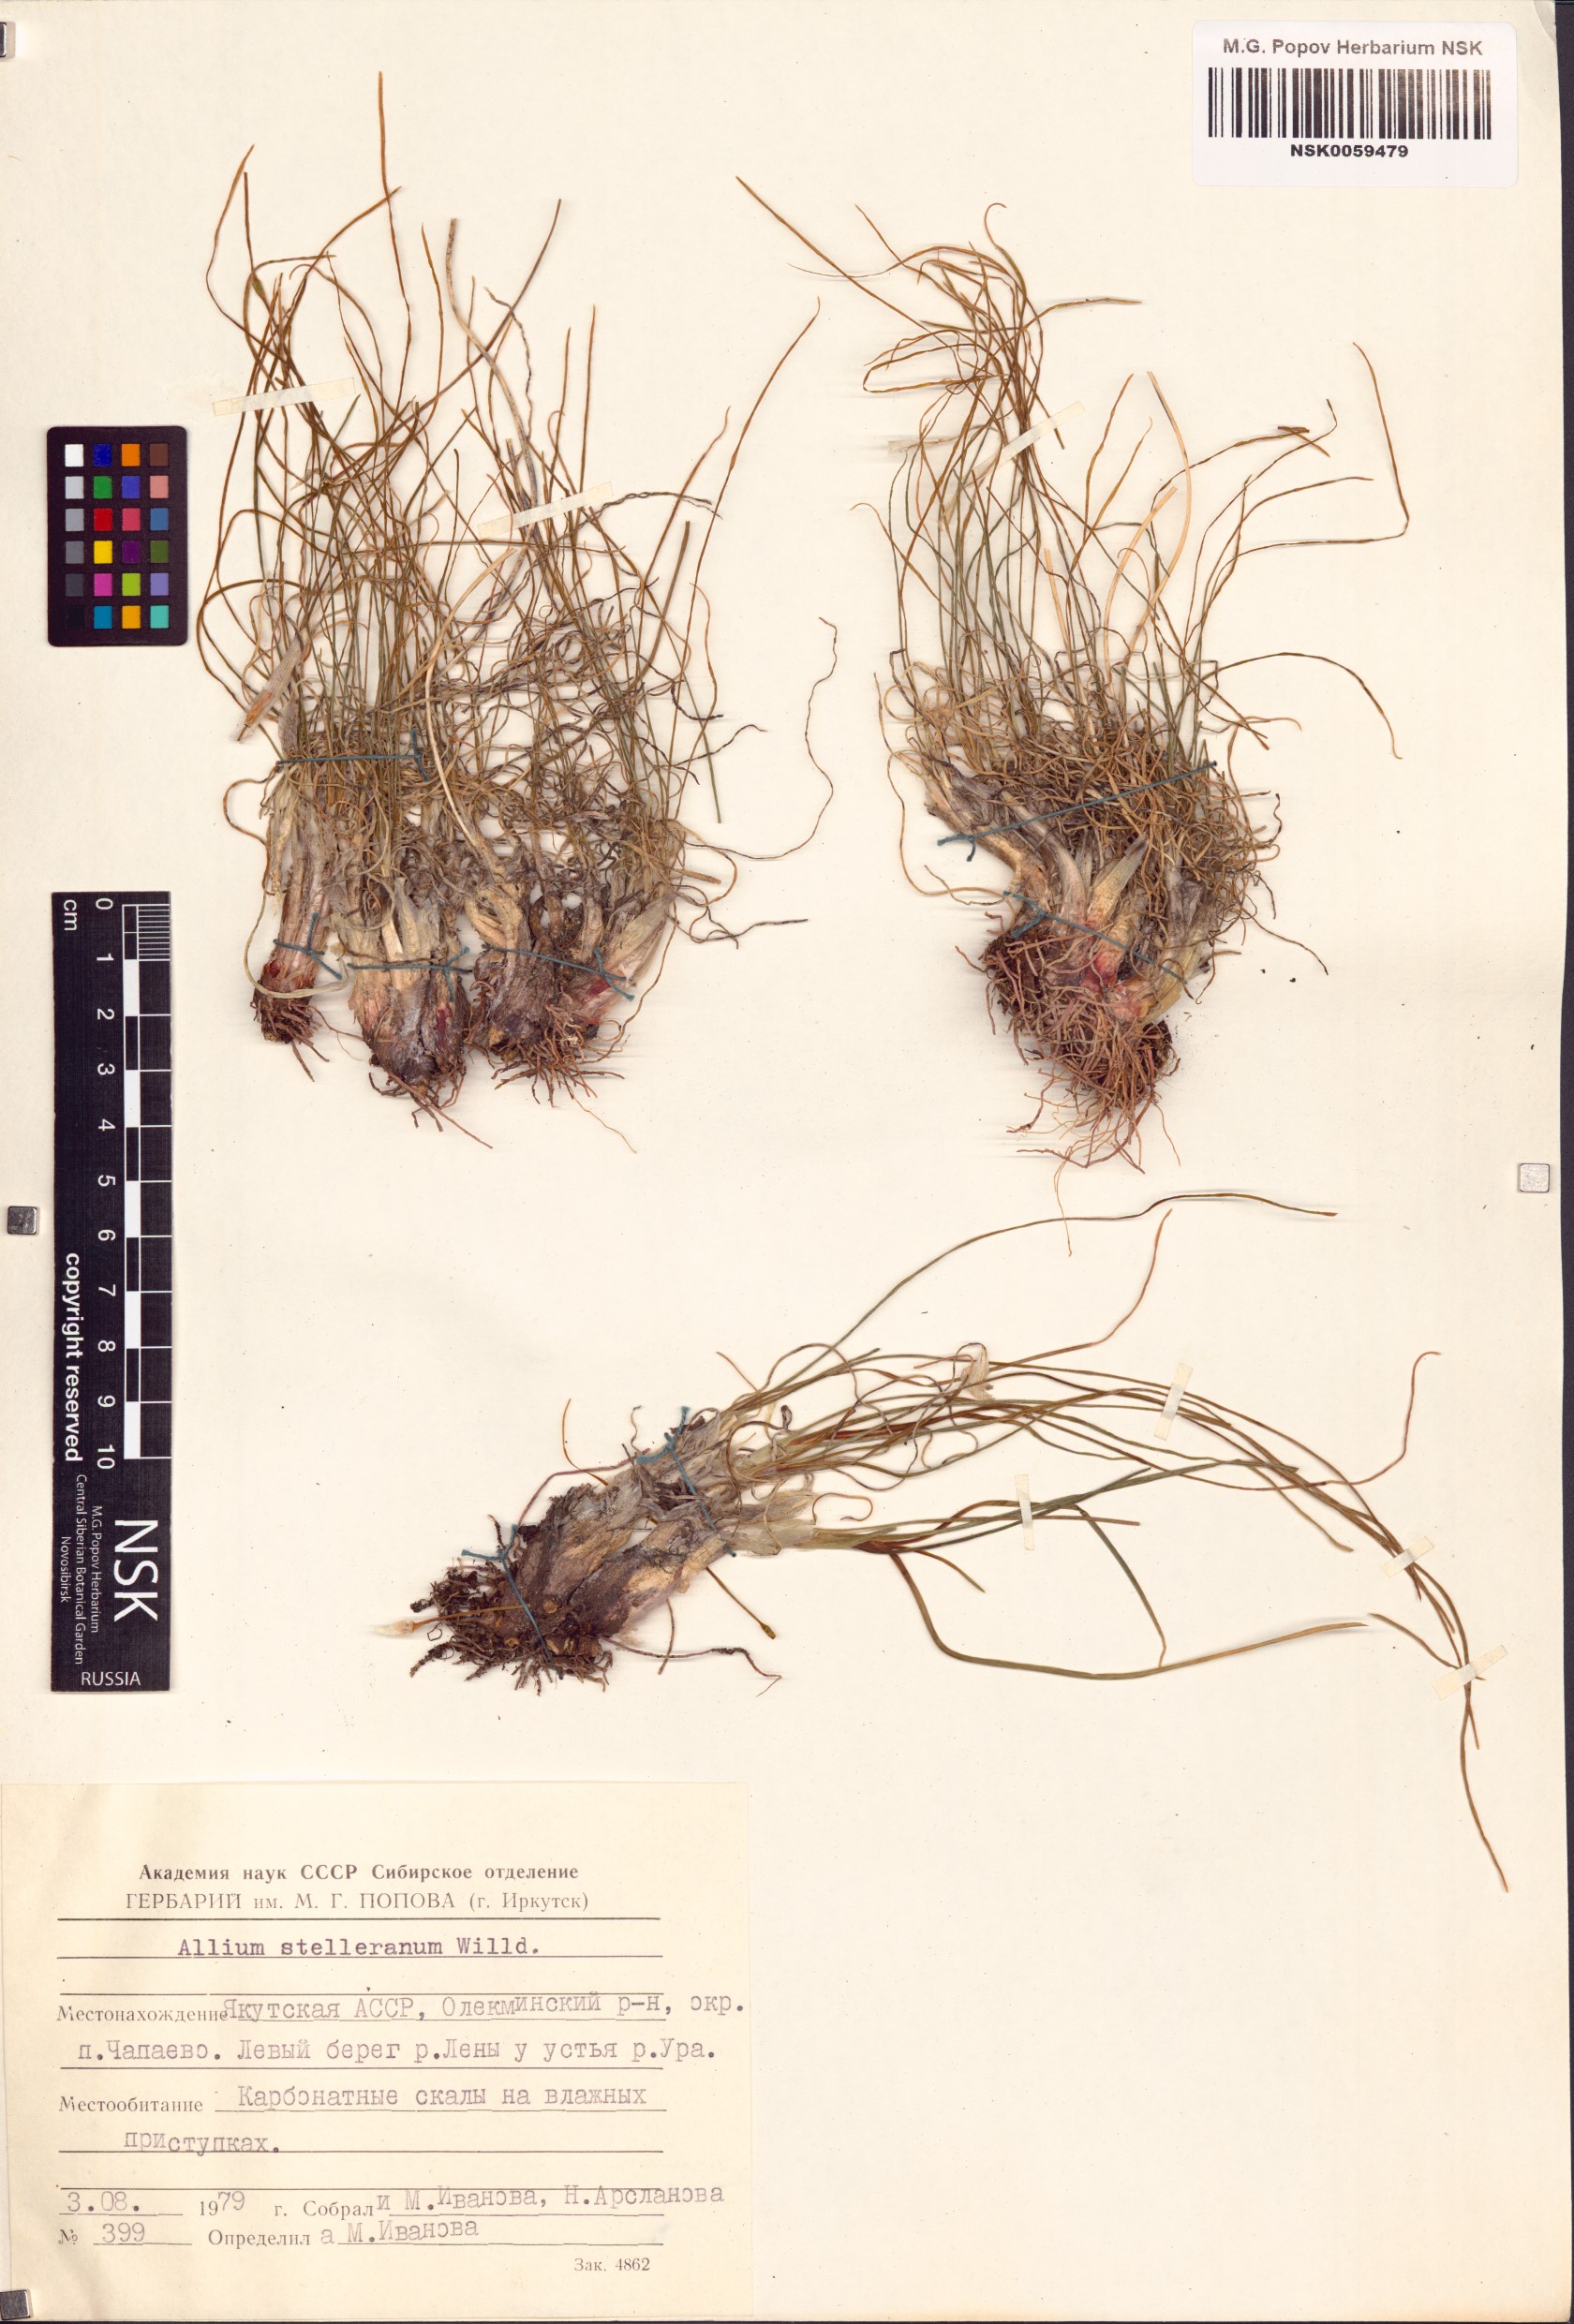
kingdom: Plantae
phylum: Tracheophyta
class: Liliopsida
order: Asparagales
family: Amaryllidaceae
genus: Allium
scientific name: Allium stellerianum
